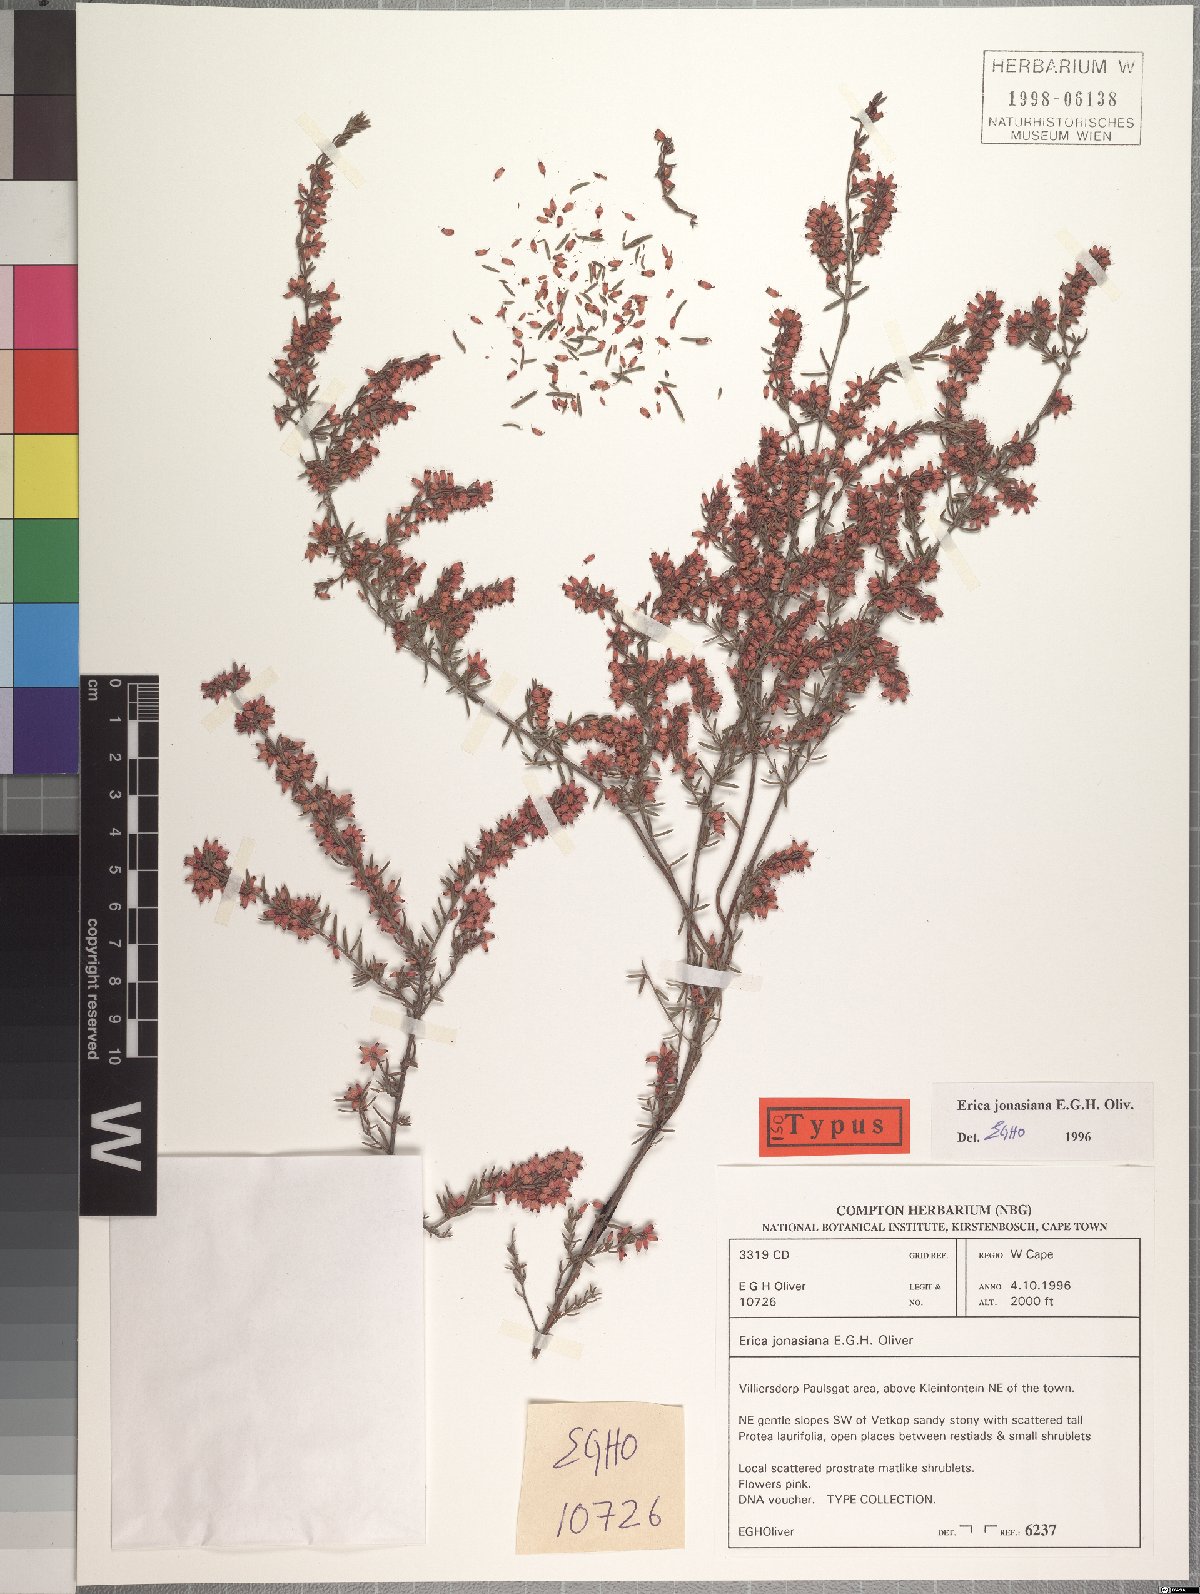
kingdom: Plantae
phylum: Tracheophyta
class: Magnoliopsida
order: Ericales
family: Ericaceae
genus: Erica
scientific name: Erica jonasiana
